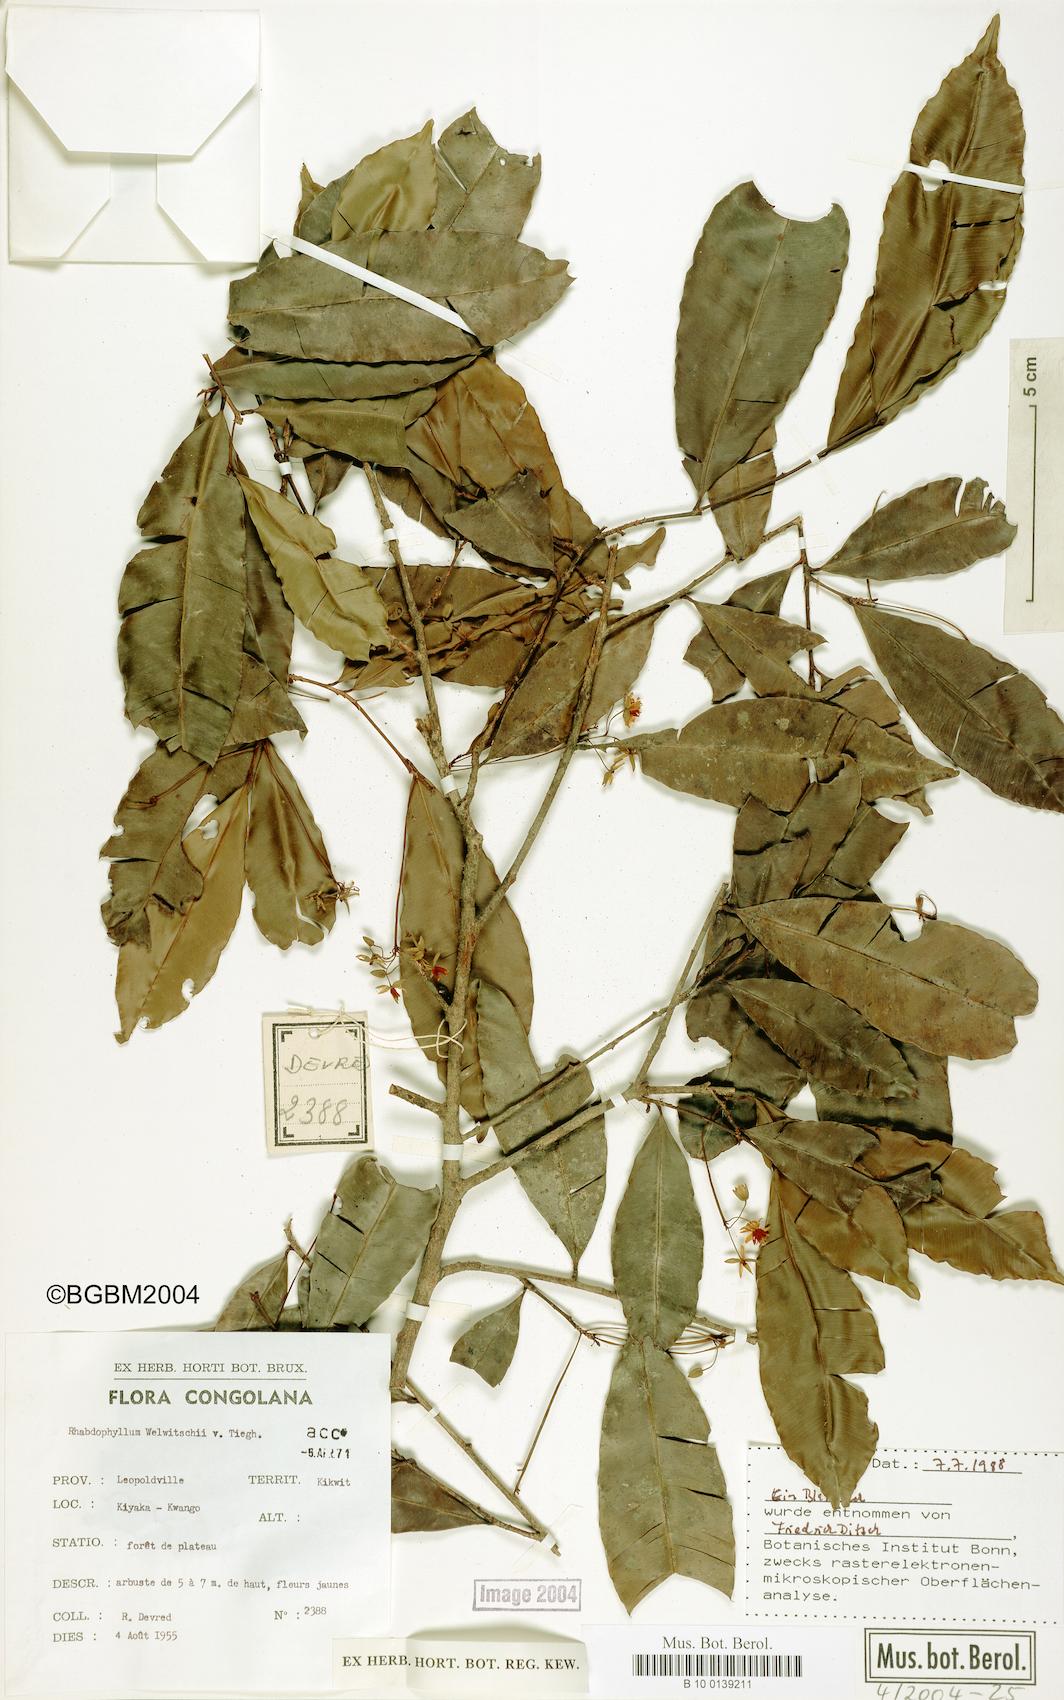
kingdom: Plantae
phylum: Tracheophyta
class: Magnoliopsida
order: Malpighiales
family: Ochnaceae
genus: Rhabdophyllum
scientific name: Rhabdophyllum welwitschii
